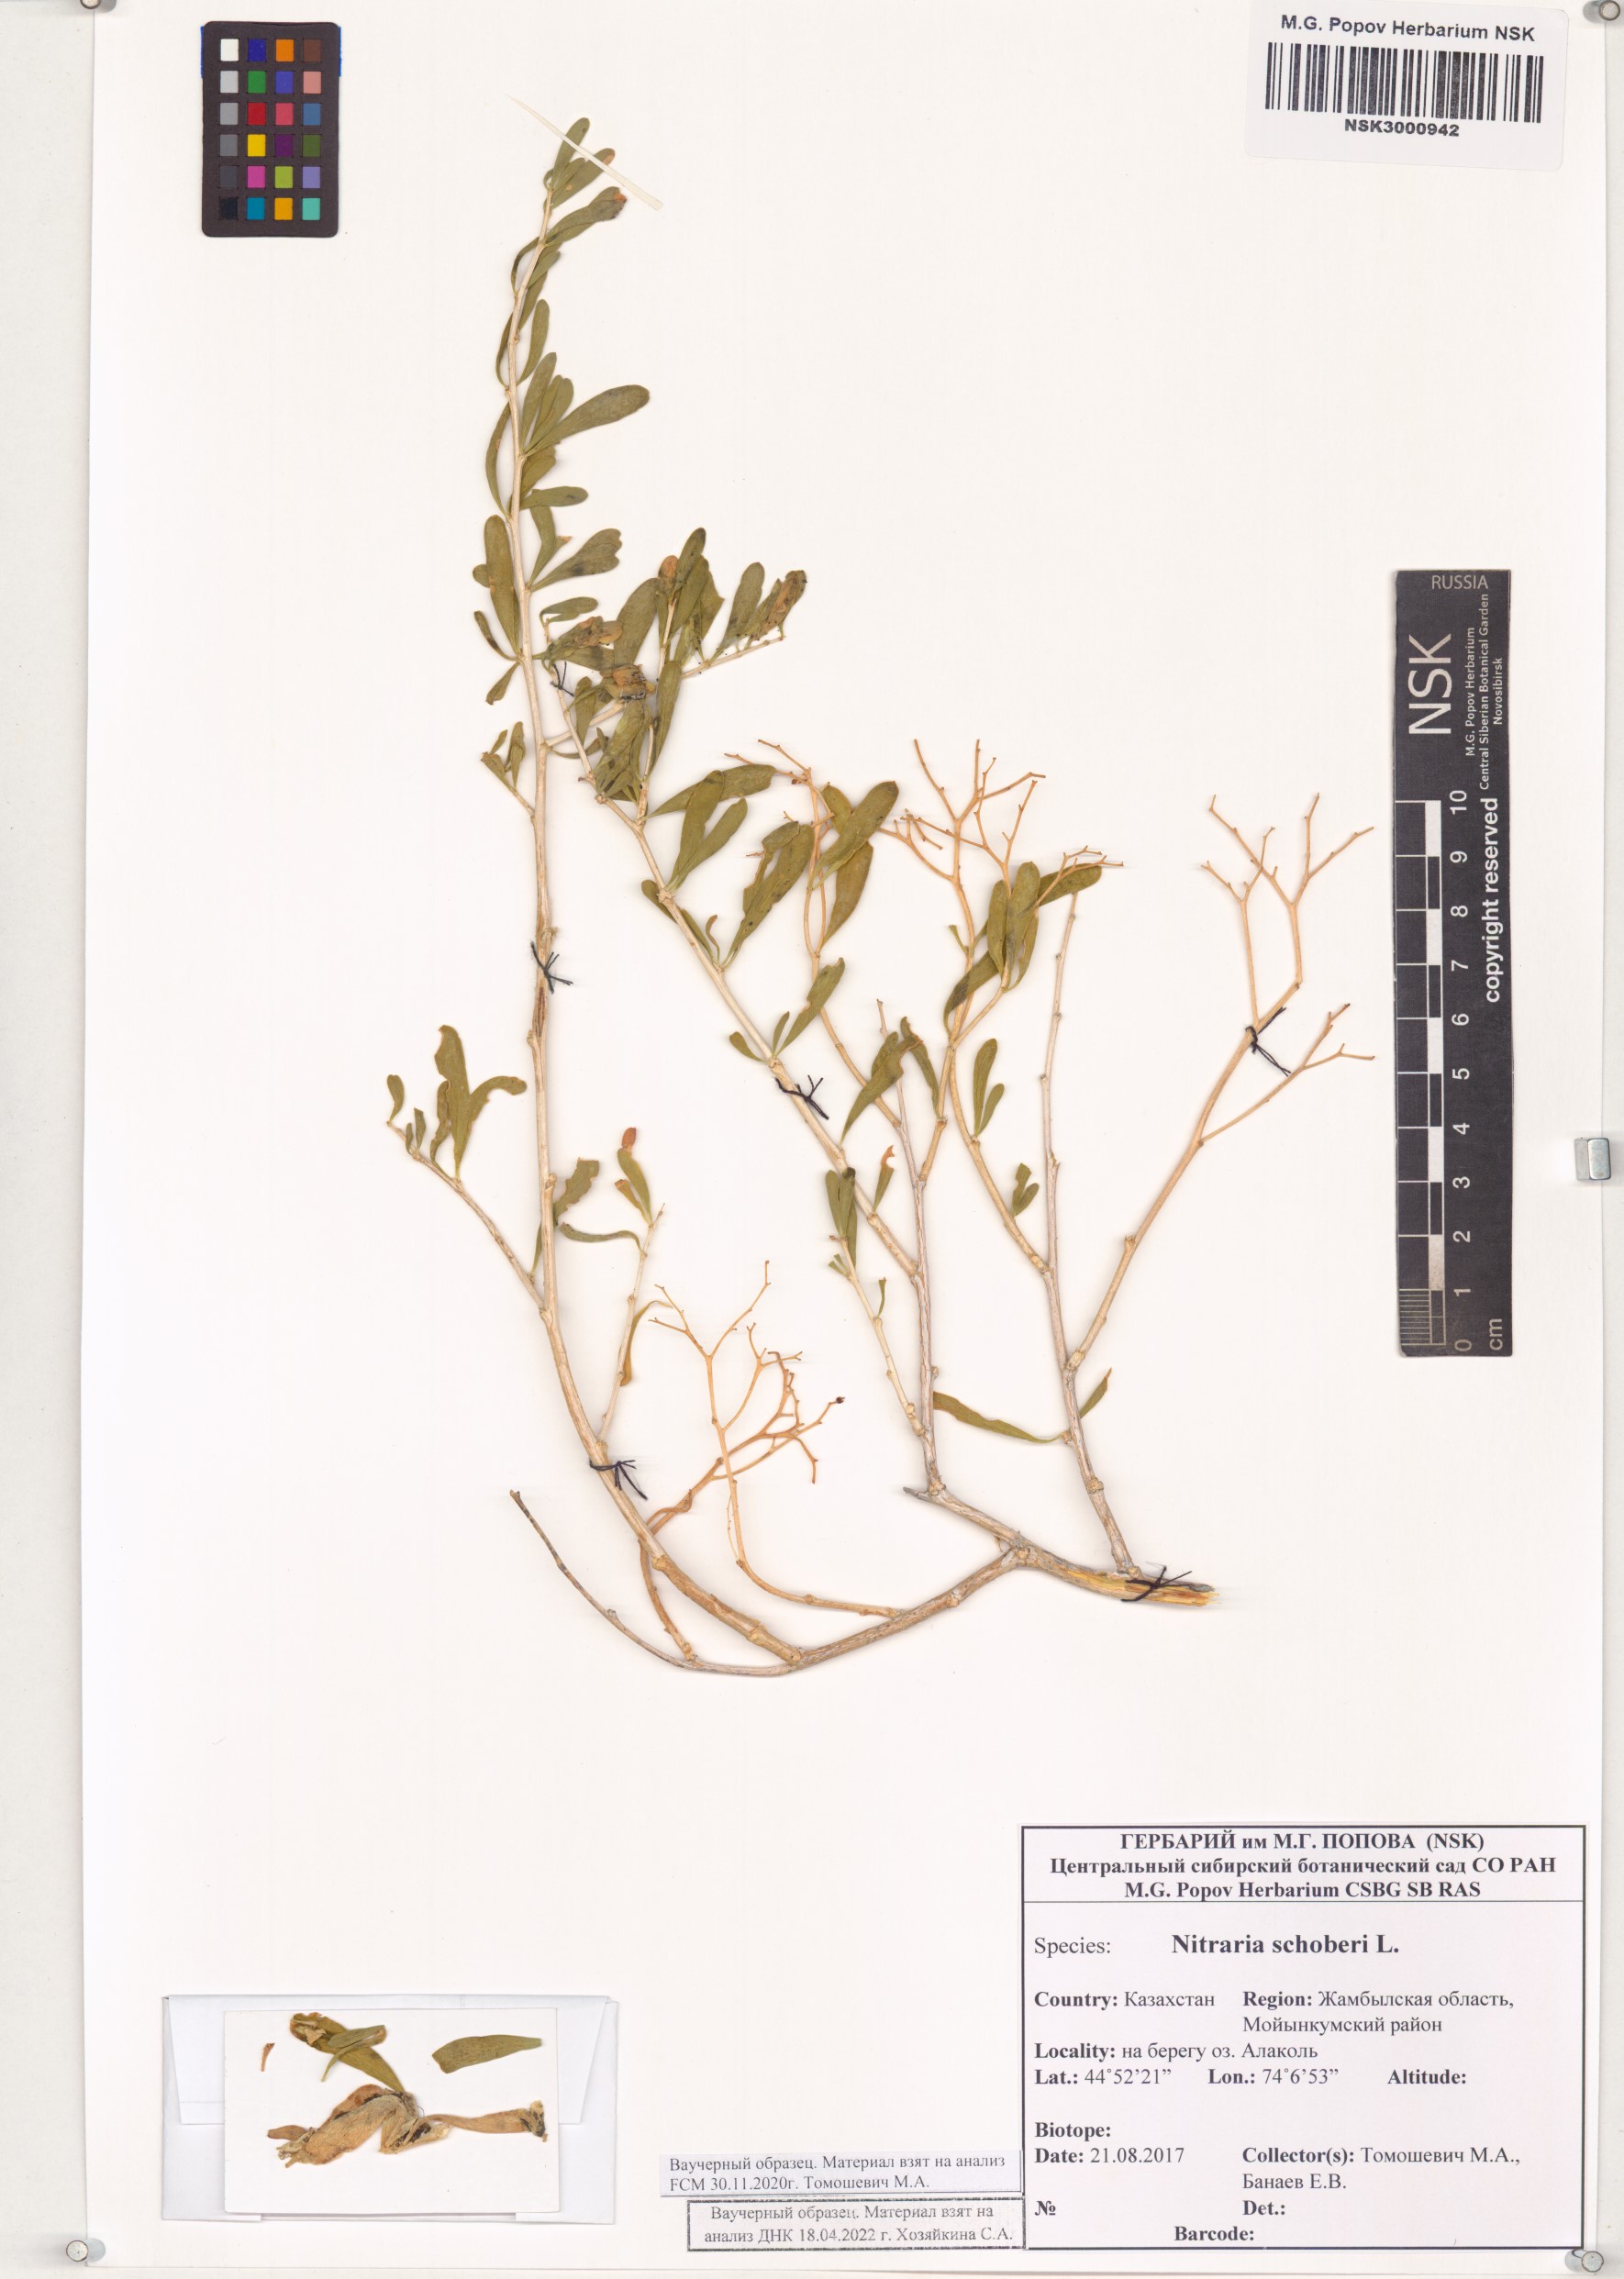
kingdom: Plantae
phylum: Tracheophyta
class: Magnoliopsida
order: Sapindales
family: Nitrariaceae
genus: Nitraria
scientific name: Nitraria schoberi
